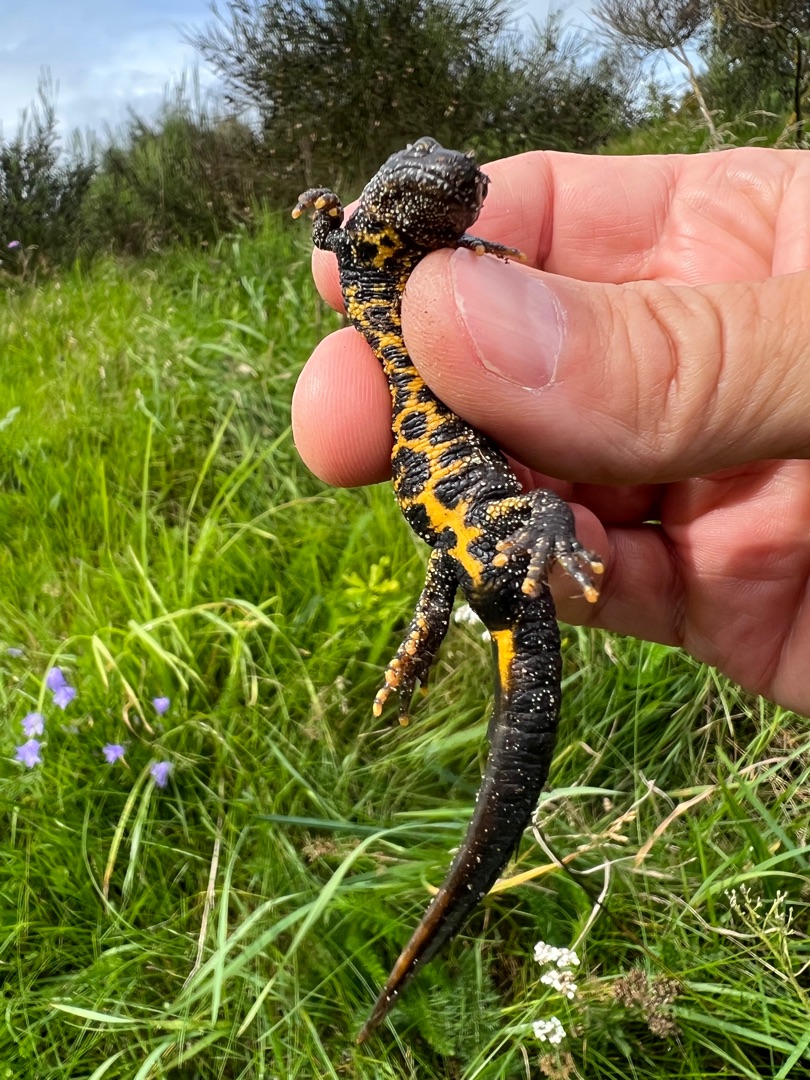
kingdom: Animalia
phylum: Chordata
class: Amphibia
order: Caudata
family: Salamandridae
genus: Triturus
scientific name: Triturus cristatus
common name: Stor vandsalamander
